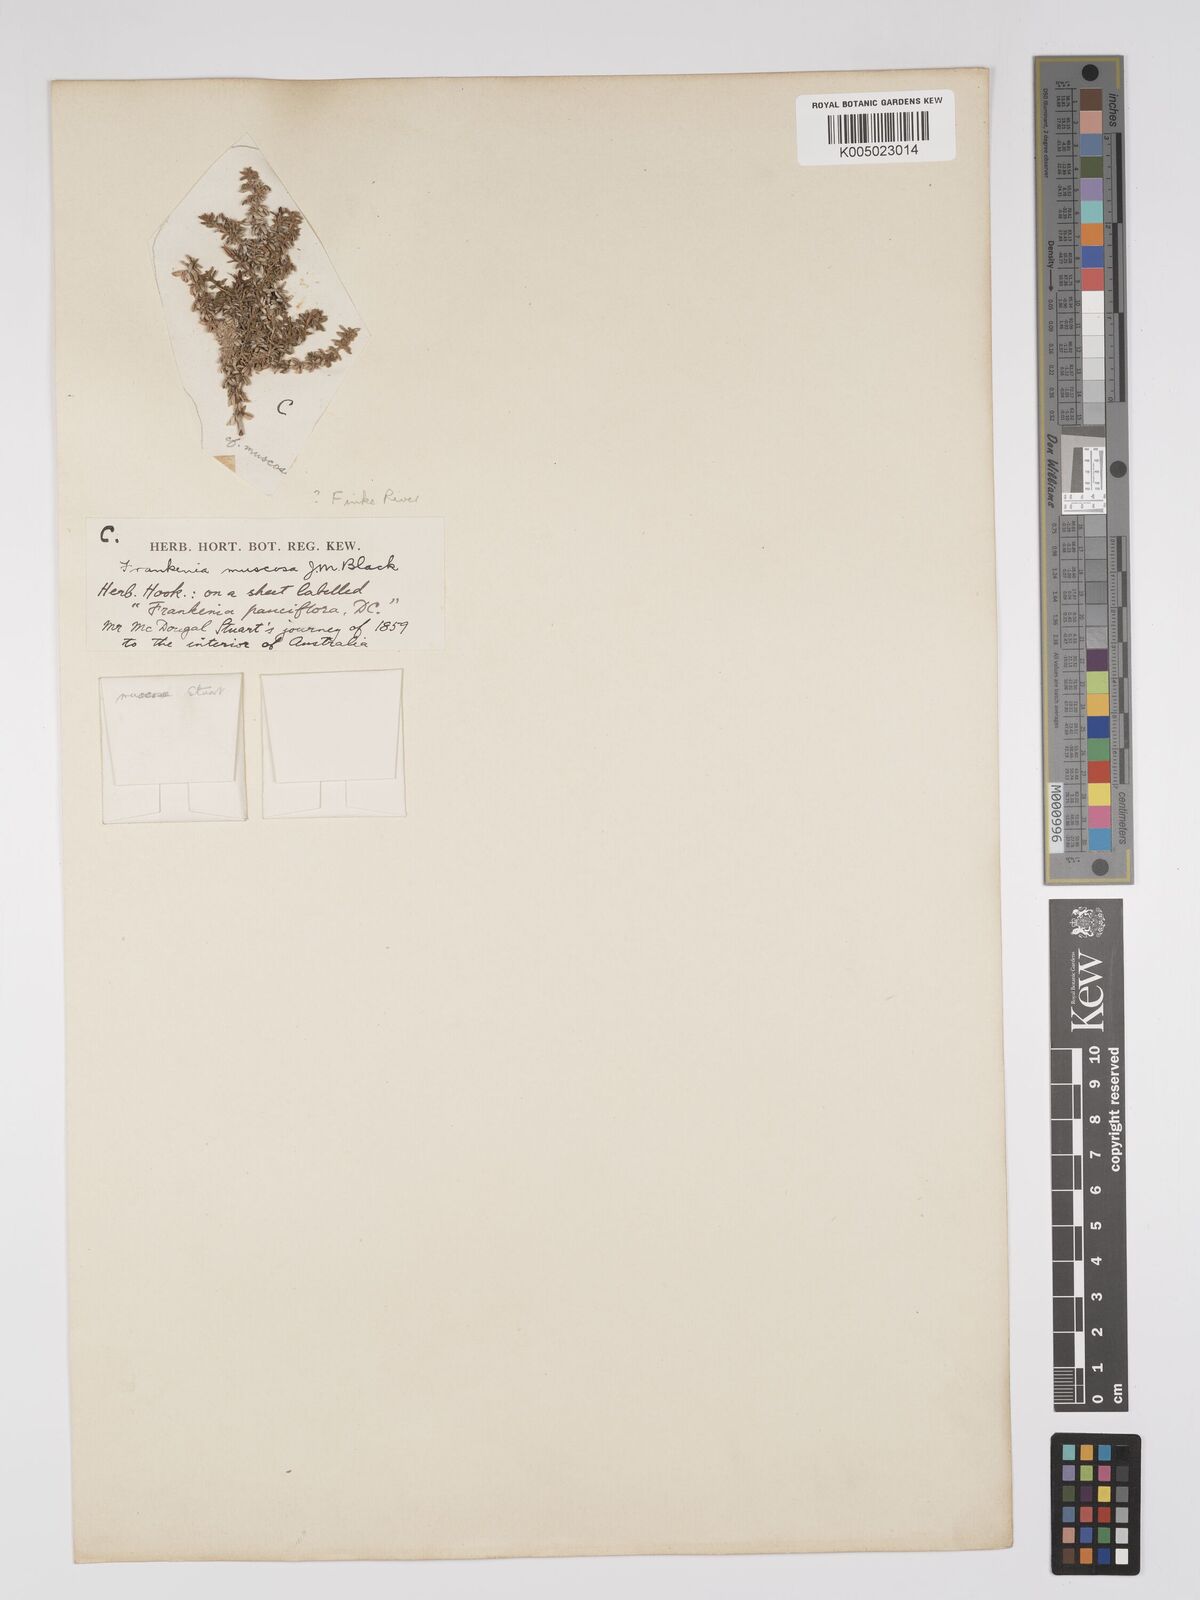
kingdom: Plantae
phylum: Tracheophyta
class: Magnoliopsida
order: Caryophyllales
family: Frankeniaceae
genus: Frankenia
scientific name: Frankenia muscosa
